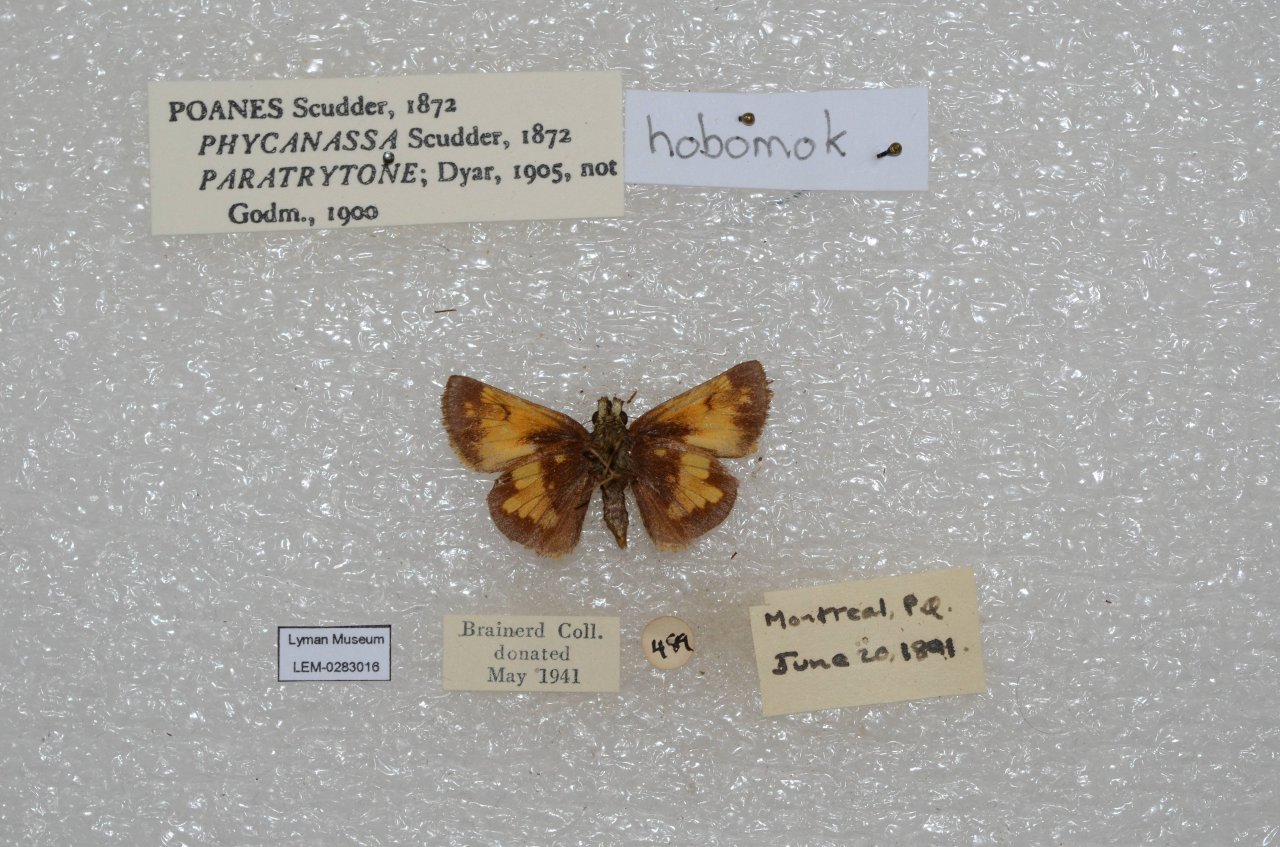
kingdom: Animalia
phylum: Arthropoda
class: Insecta
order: Lepidoptera
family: Hesperiidae
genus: Lon
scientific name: Lon hobomok
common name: Hobomok Skipper
